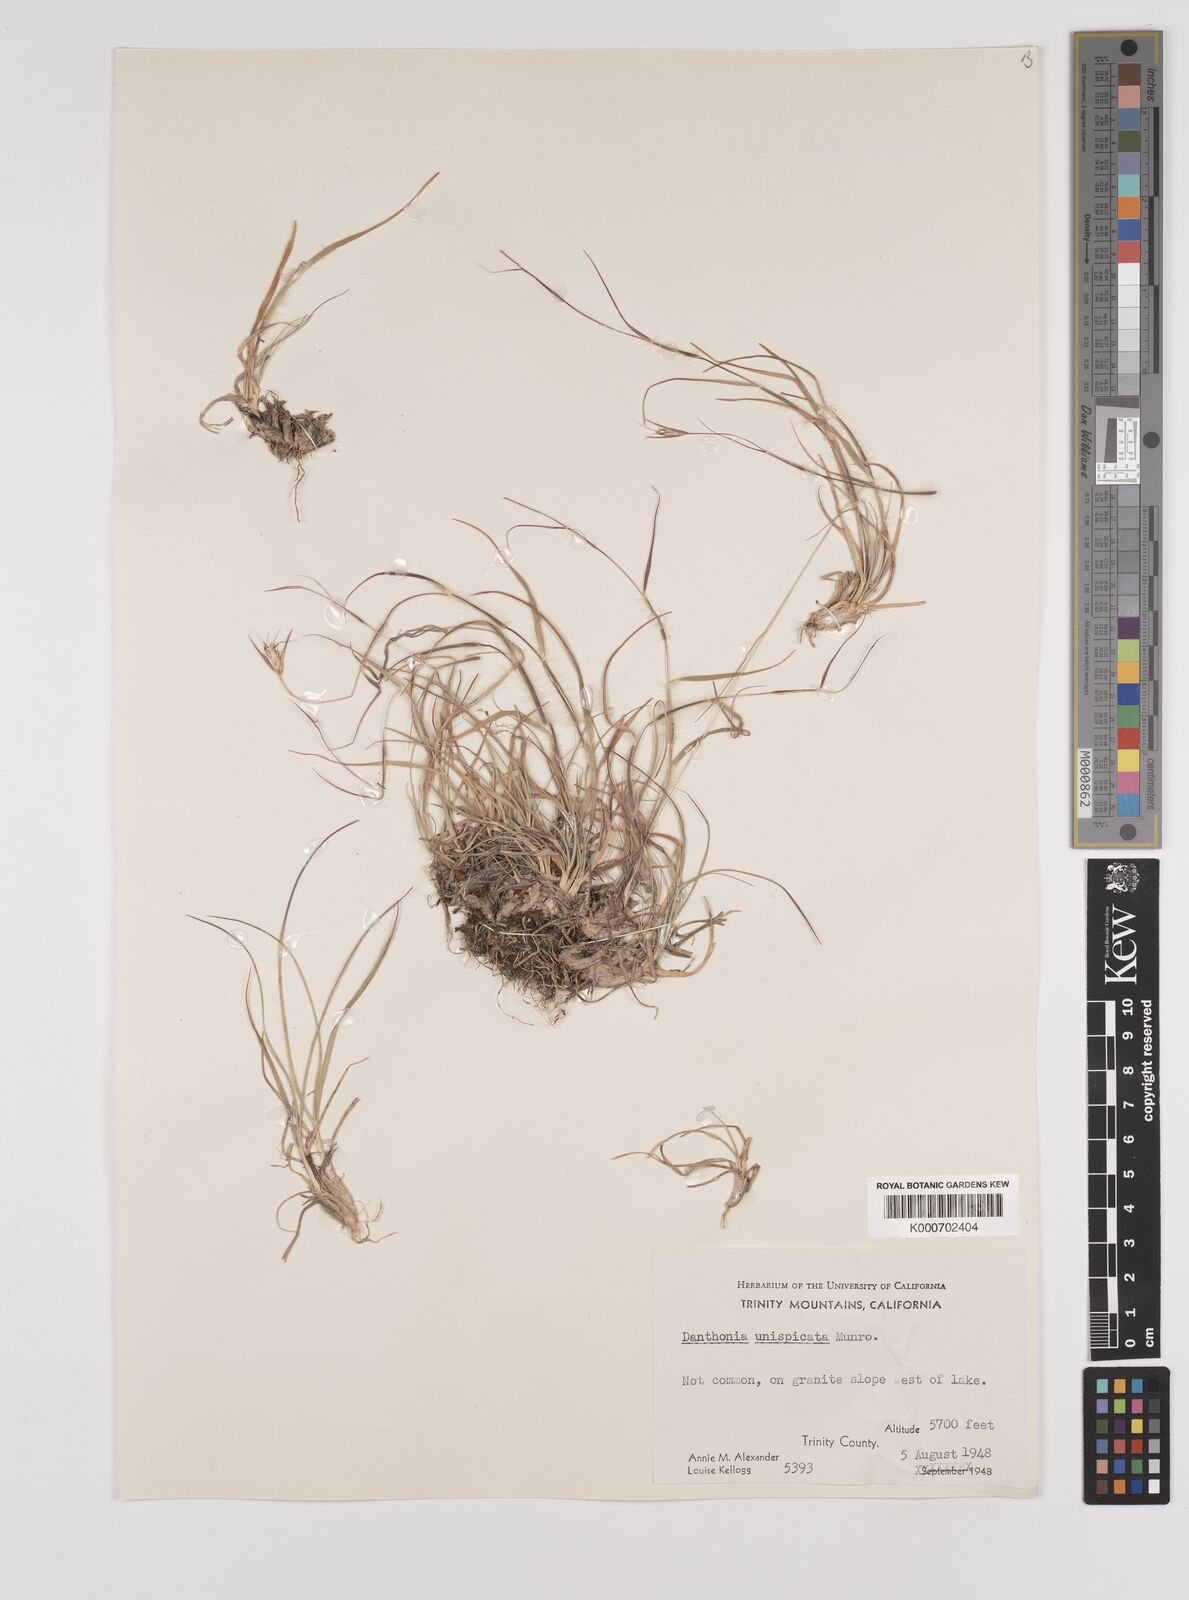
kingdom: Plantae
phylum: Tracheophyta
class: Liliopsida
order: Poales
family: Poaceae
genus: Danthonia
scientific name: Danthonia unispicata
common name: Few-flowered oatgrass
